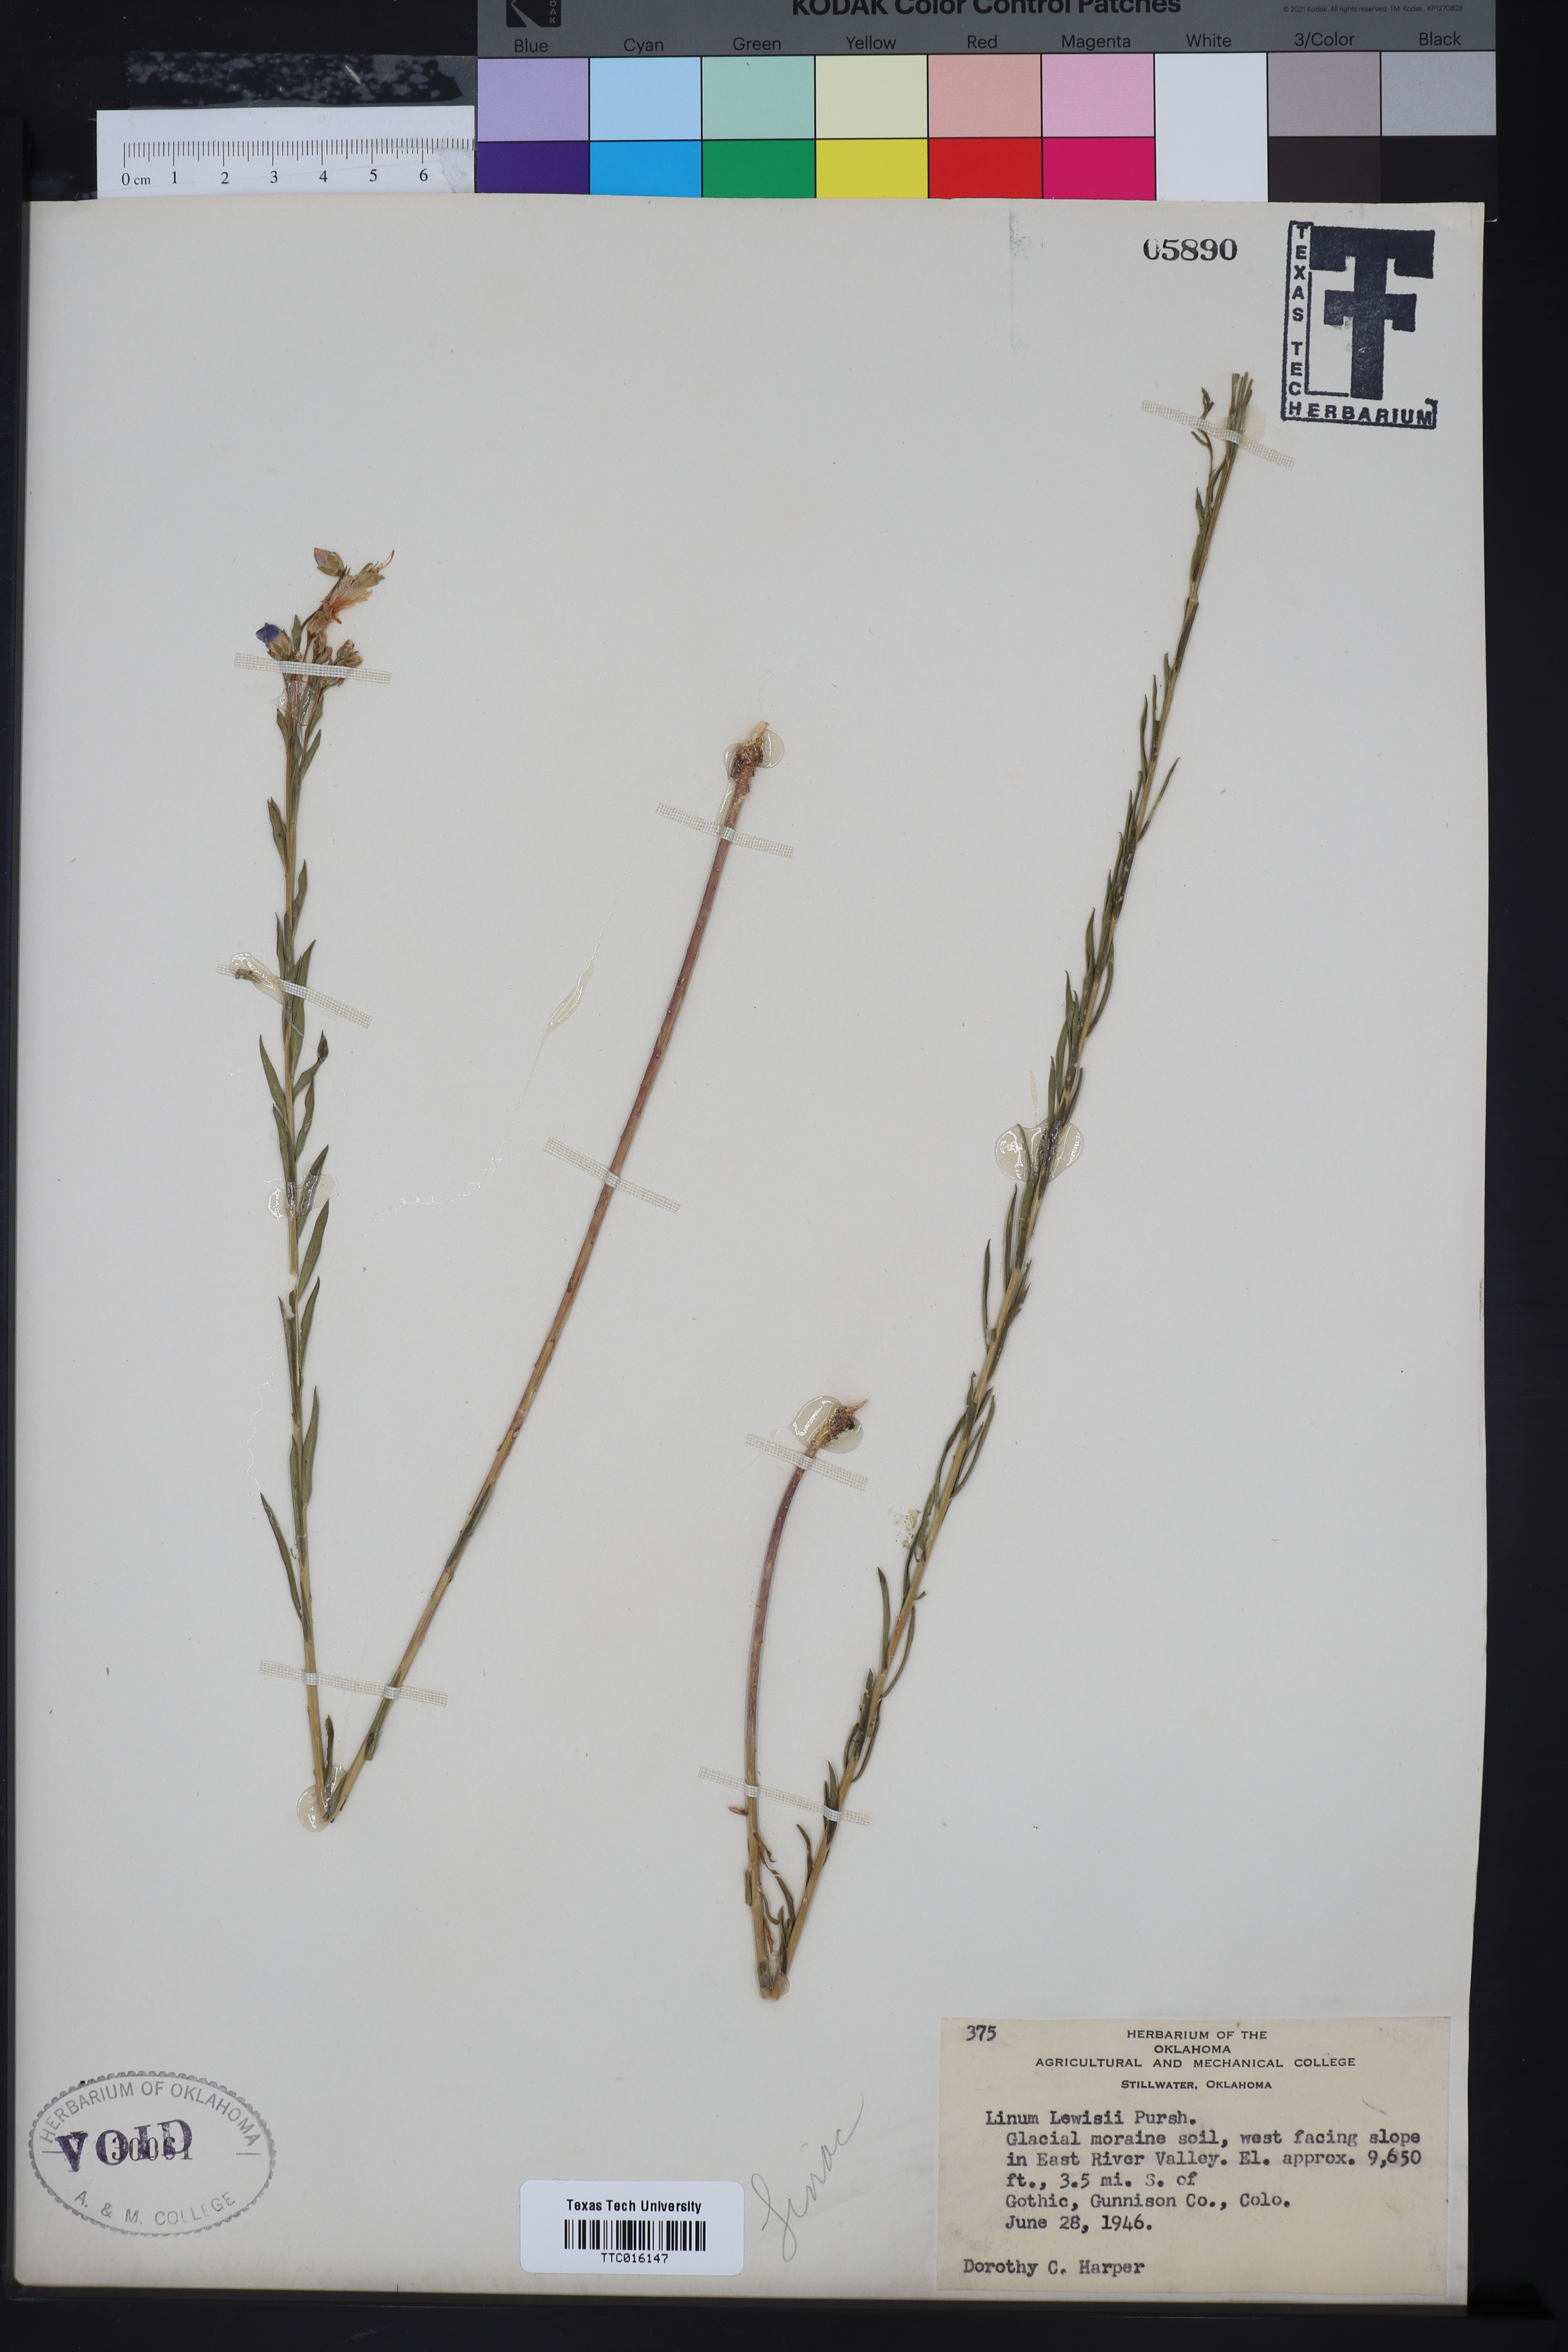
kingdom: Plantae
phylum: Tracheophyta
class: Magnoliopsida
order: Malpighiales
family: Linaceae
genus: Linum
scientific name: Linum lewisii
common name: Prairie flax
